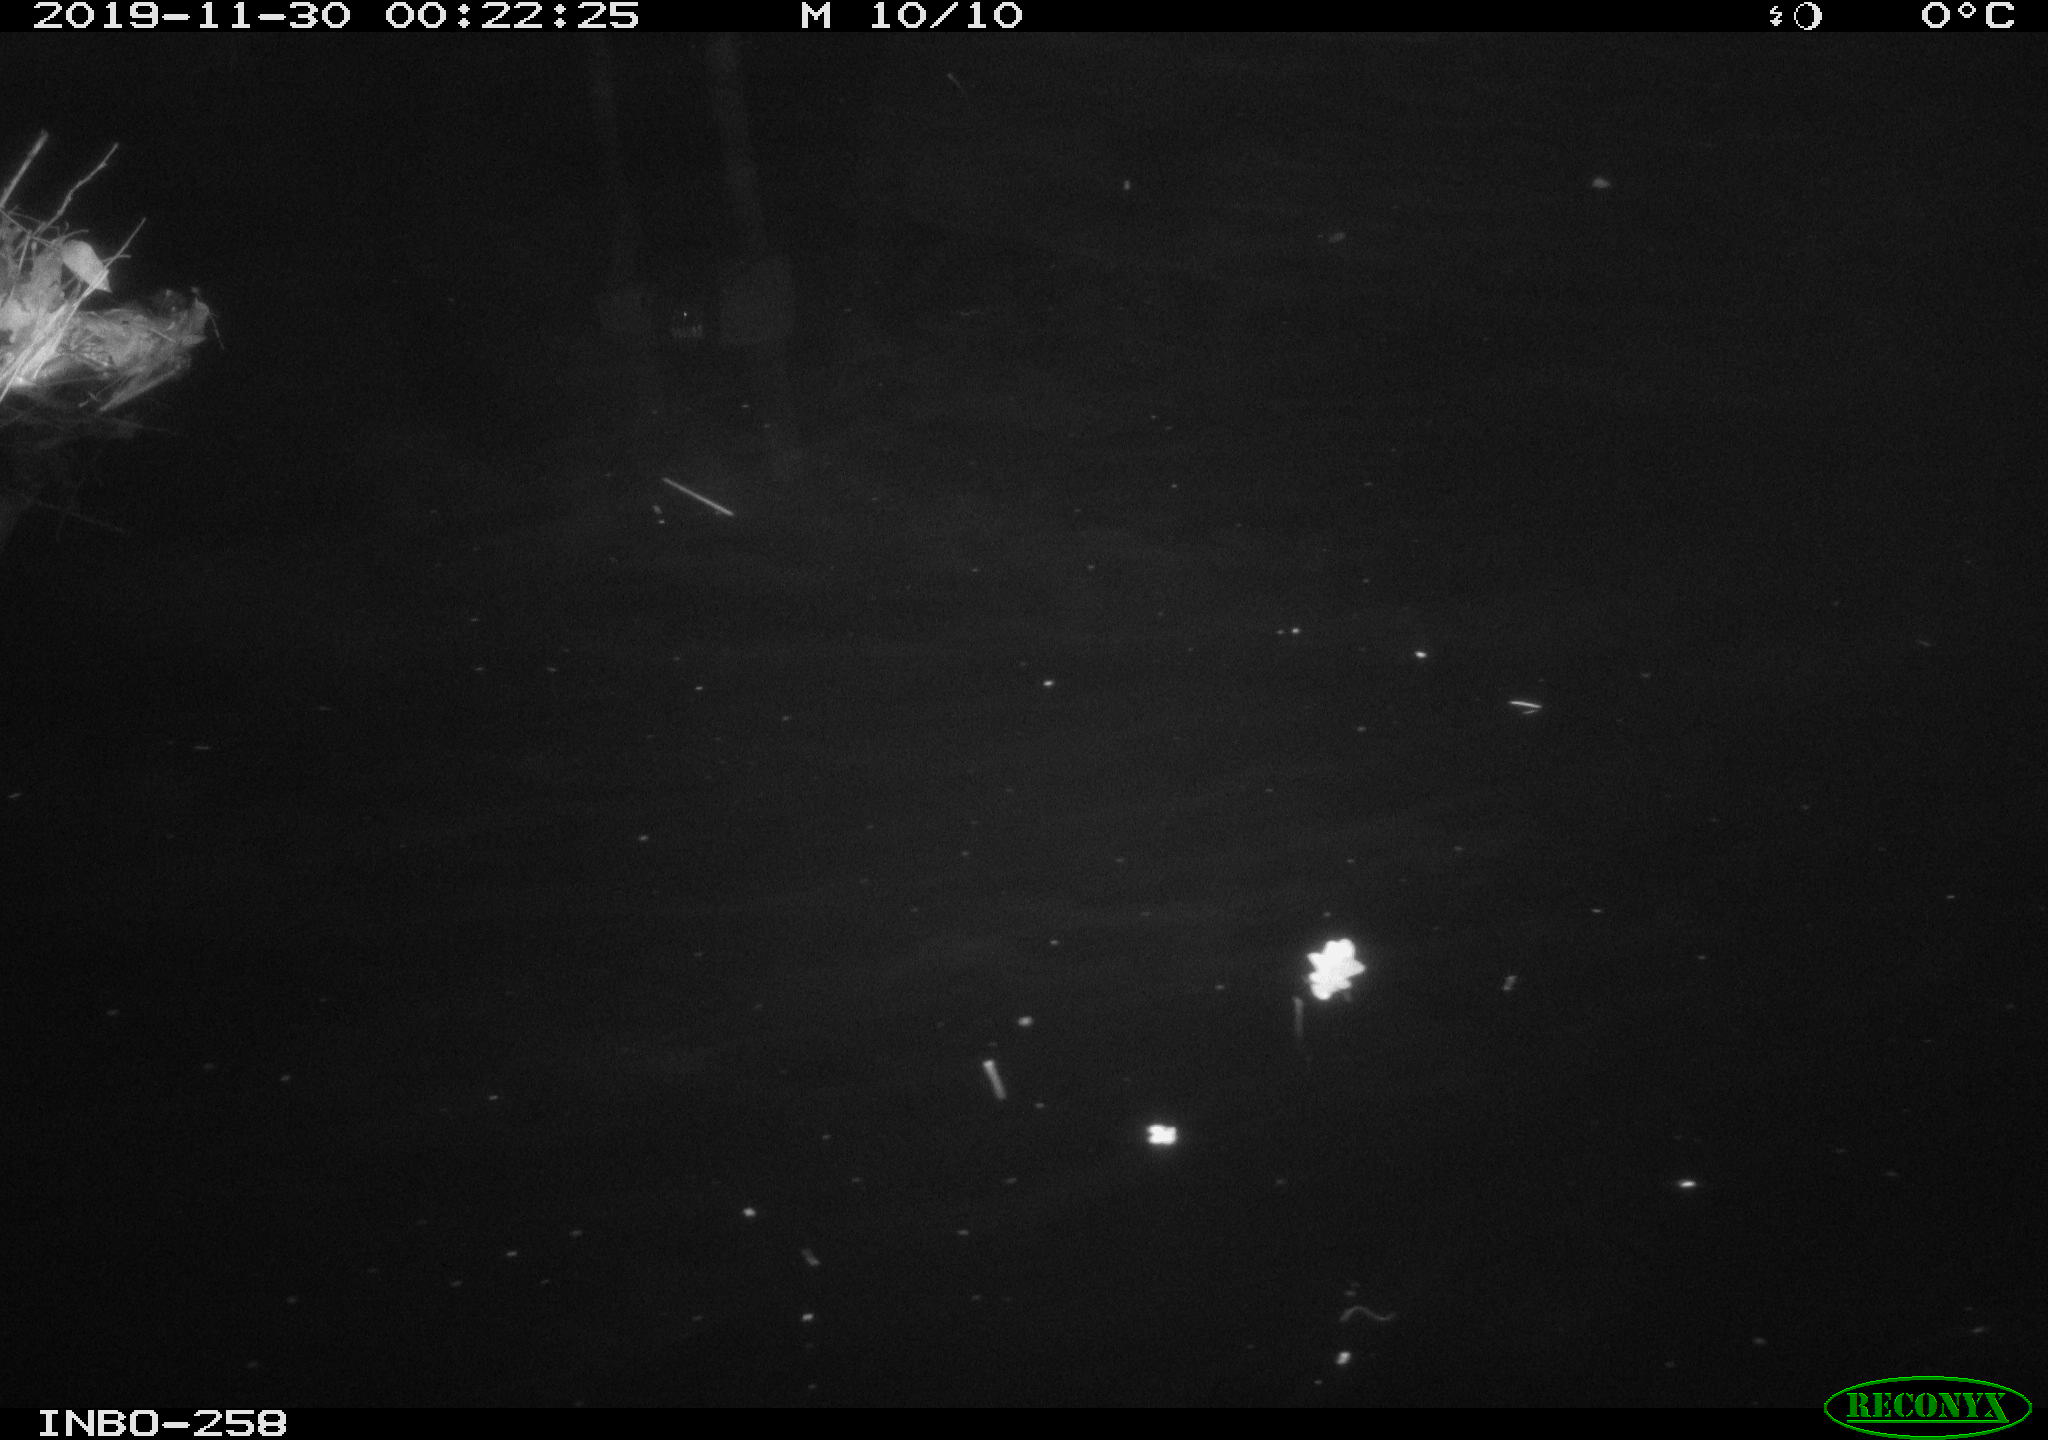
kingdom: Animalia
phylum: Chordata
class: Aves
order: Anseriformes
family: Anatidae
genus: Anas
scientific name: Anas platyrhynchos
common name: Mallard
